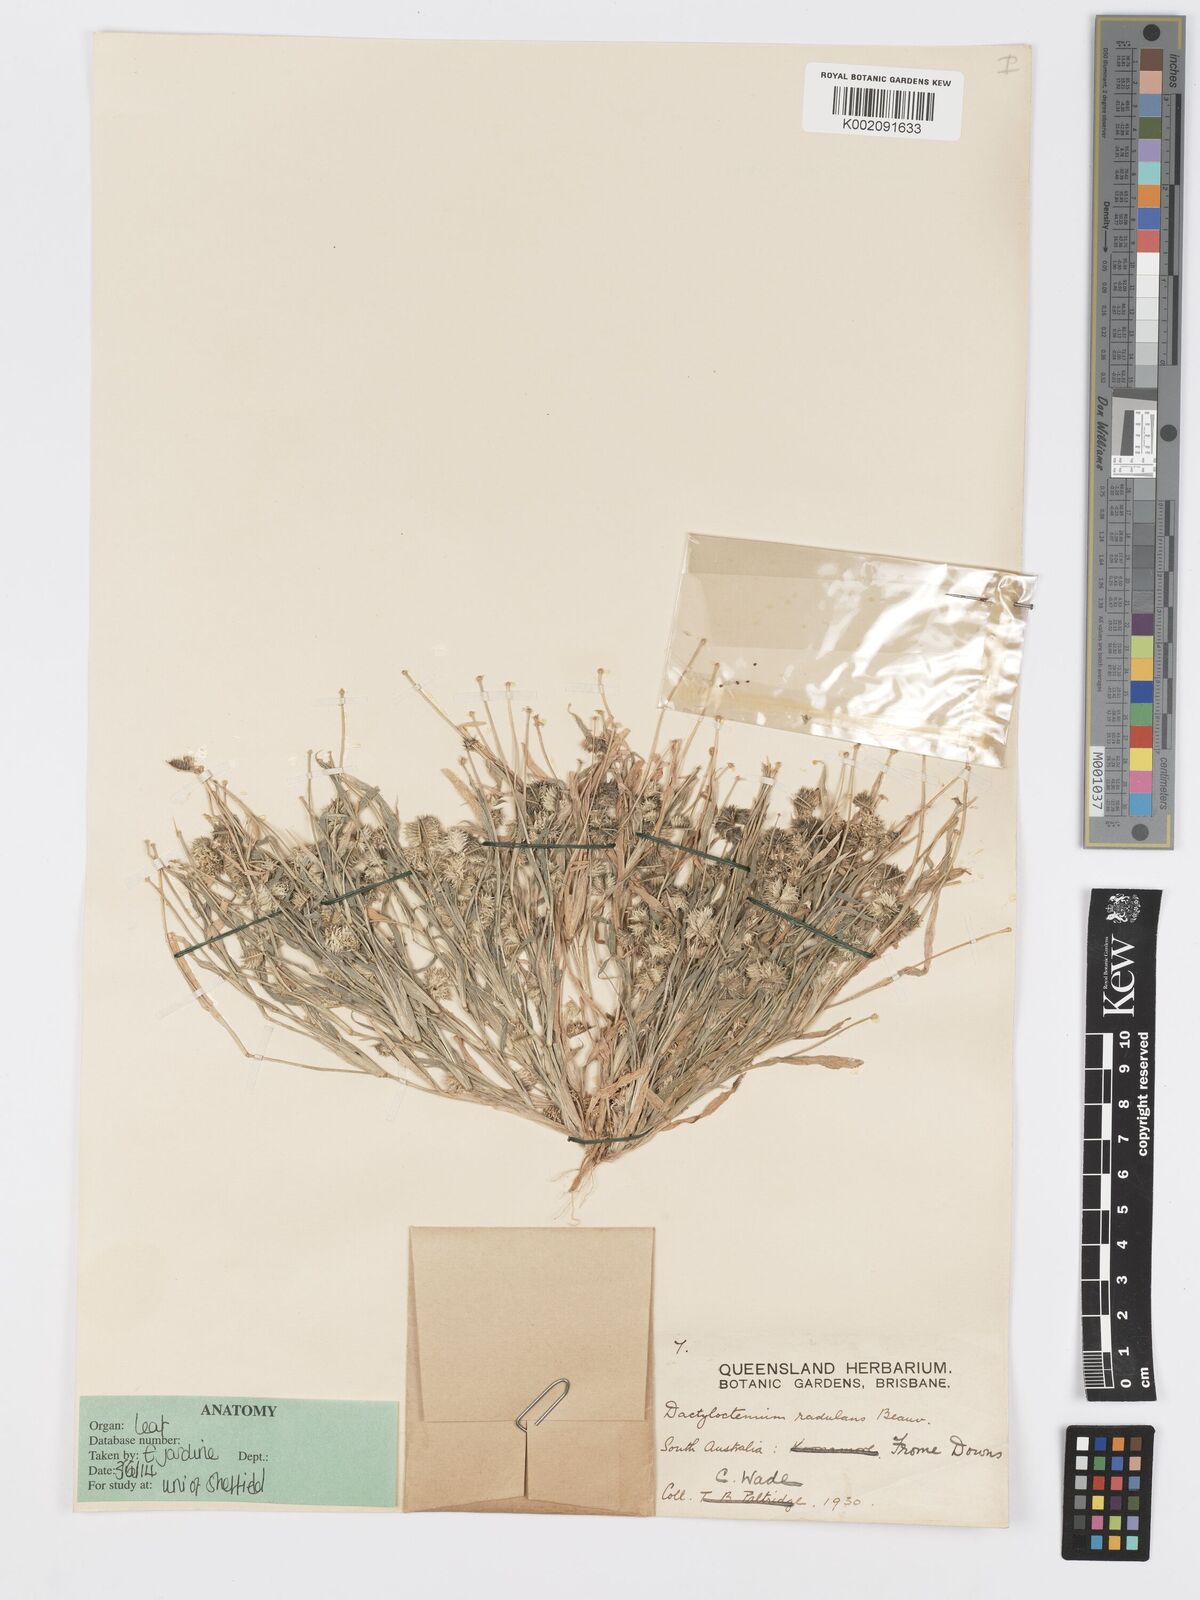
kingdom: Plantae
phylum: Tracheophyta
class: Liliopsida
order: Poales
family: Poaceae
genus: Dactyloctenium
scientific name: Dactyloctenium radulans
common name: Button-grass
